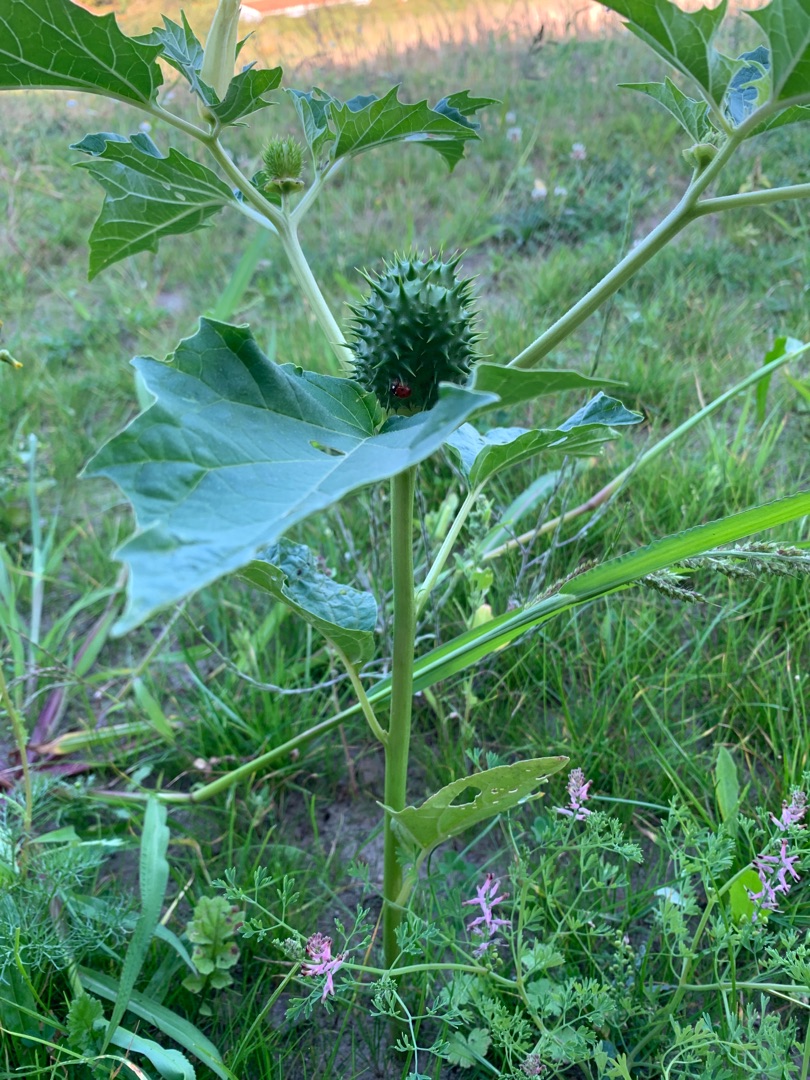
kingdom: Plantae
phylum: Tracheophyta
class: Magnoliopsida
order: Solanales
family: Solanaceae
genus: Datura
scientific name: Datura stramonium
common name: Pigæble
